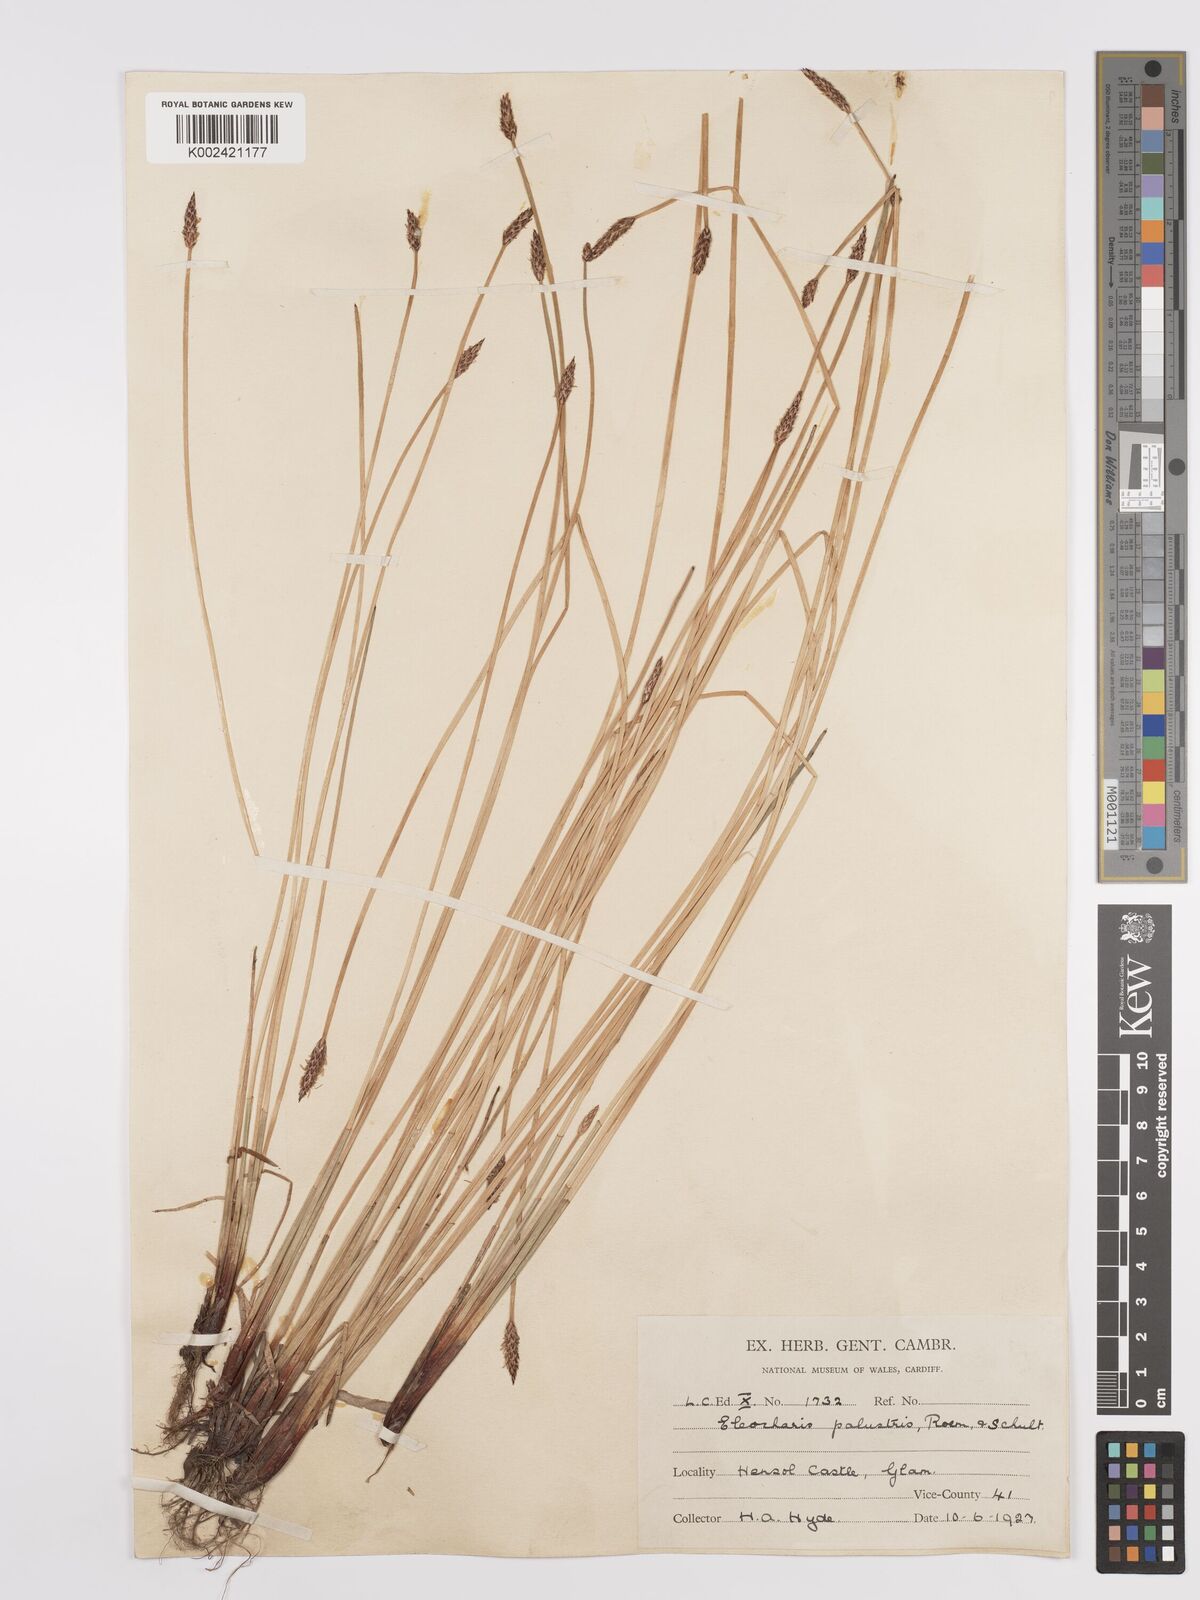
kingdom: Plantae
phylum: Tracheophyta
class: Liliopsida
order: Poales
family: Cyperaceae
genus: Eleocharis
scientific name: Eleocharis palustris
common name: Common spike-rush
